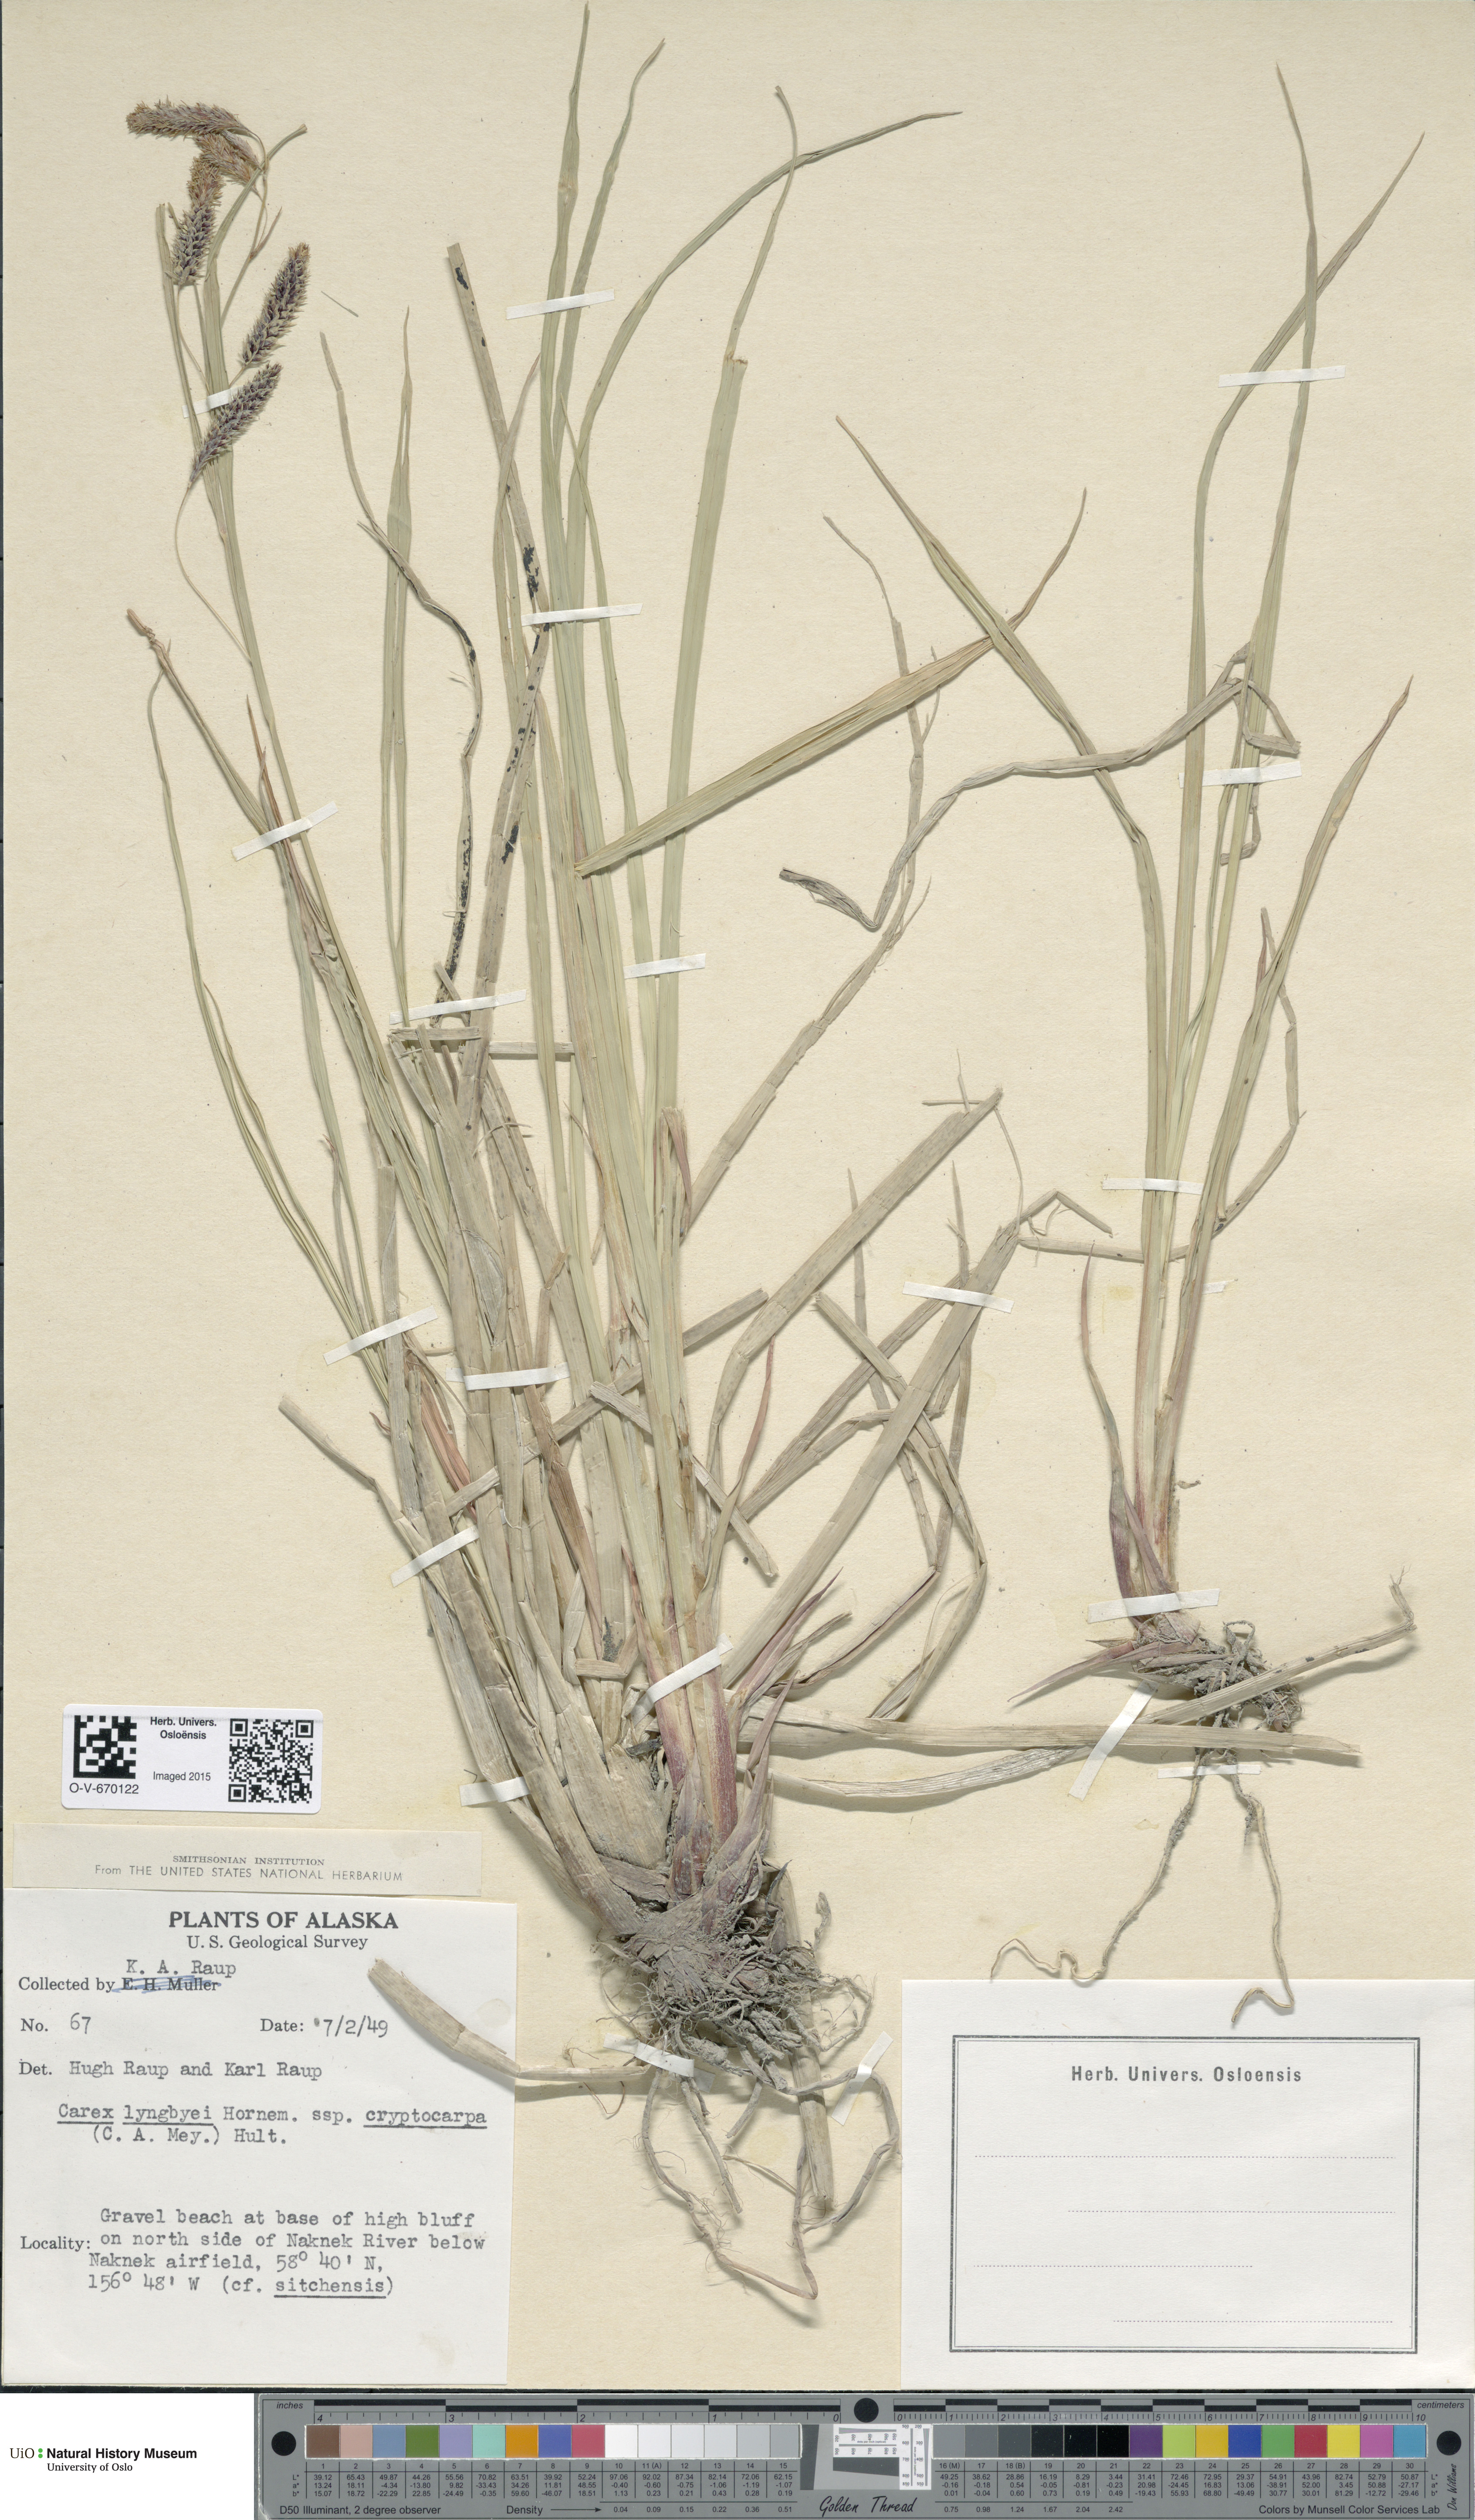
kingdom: Plantae
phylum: Tracheophyta
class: Liliopsida
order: Poales
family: Cyperaceae
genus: Carex
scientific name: Carex lyngbyei
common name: Lyngbye's sedge
